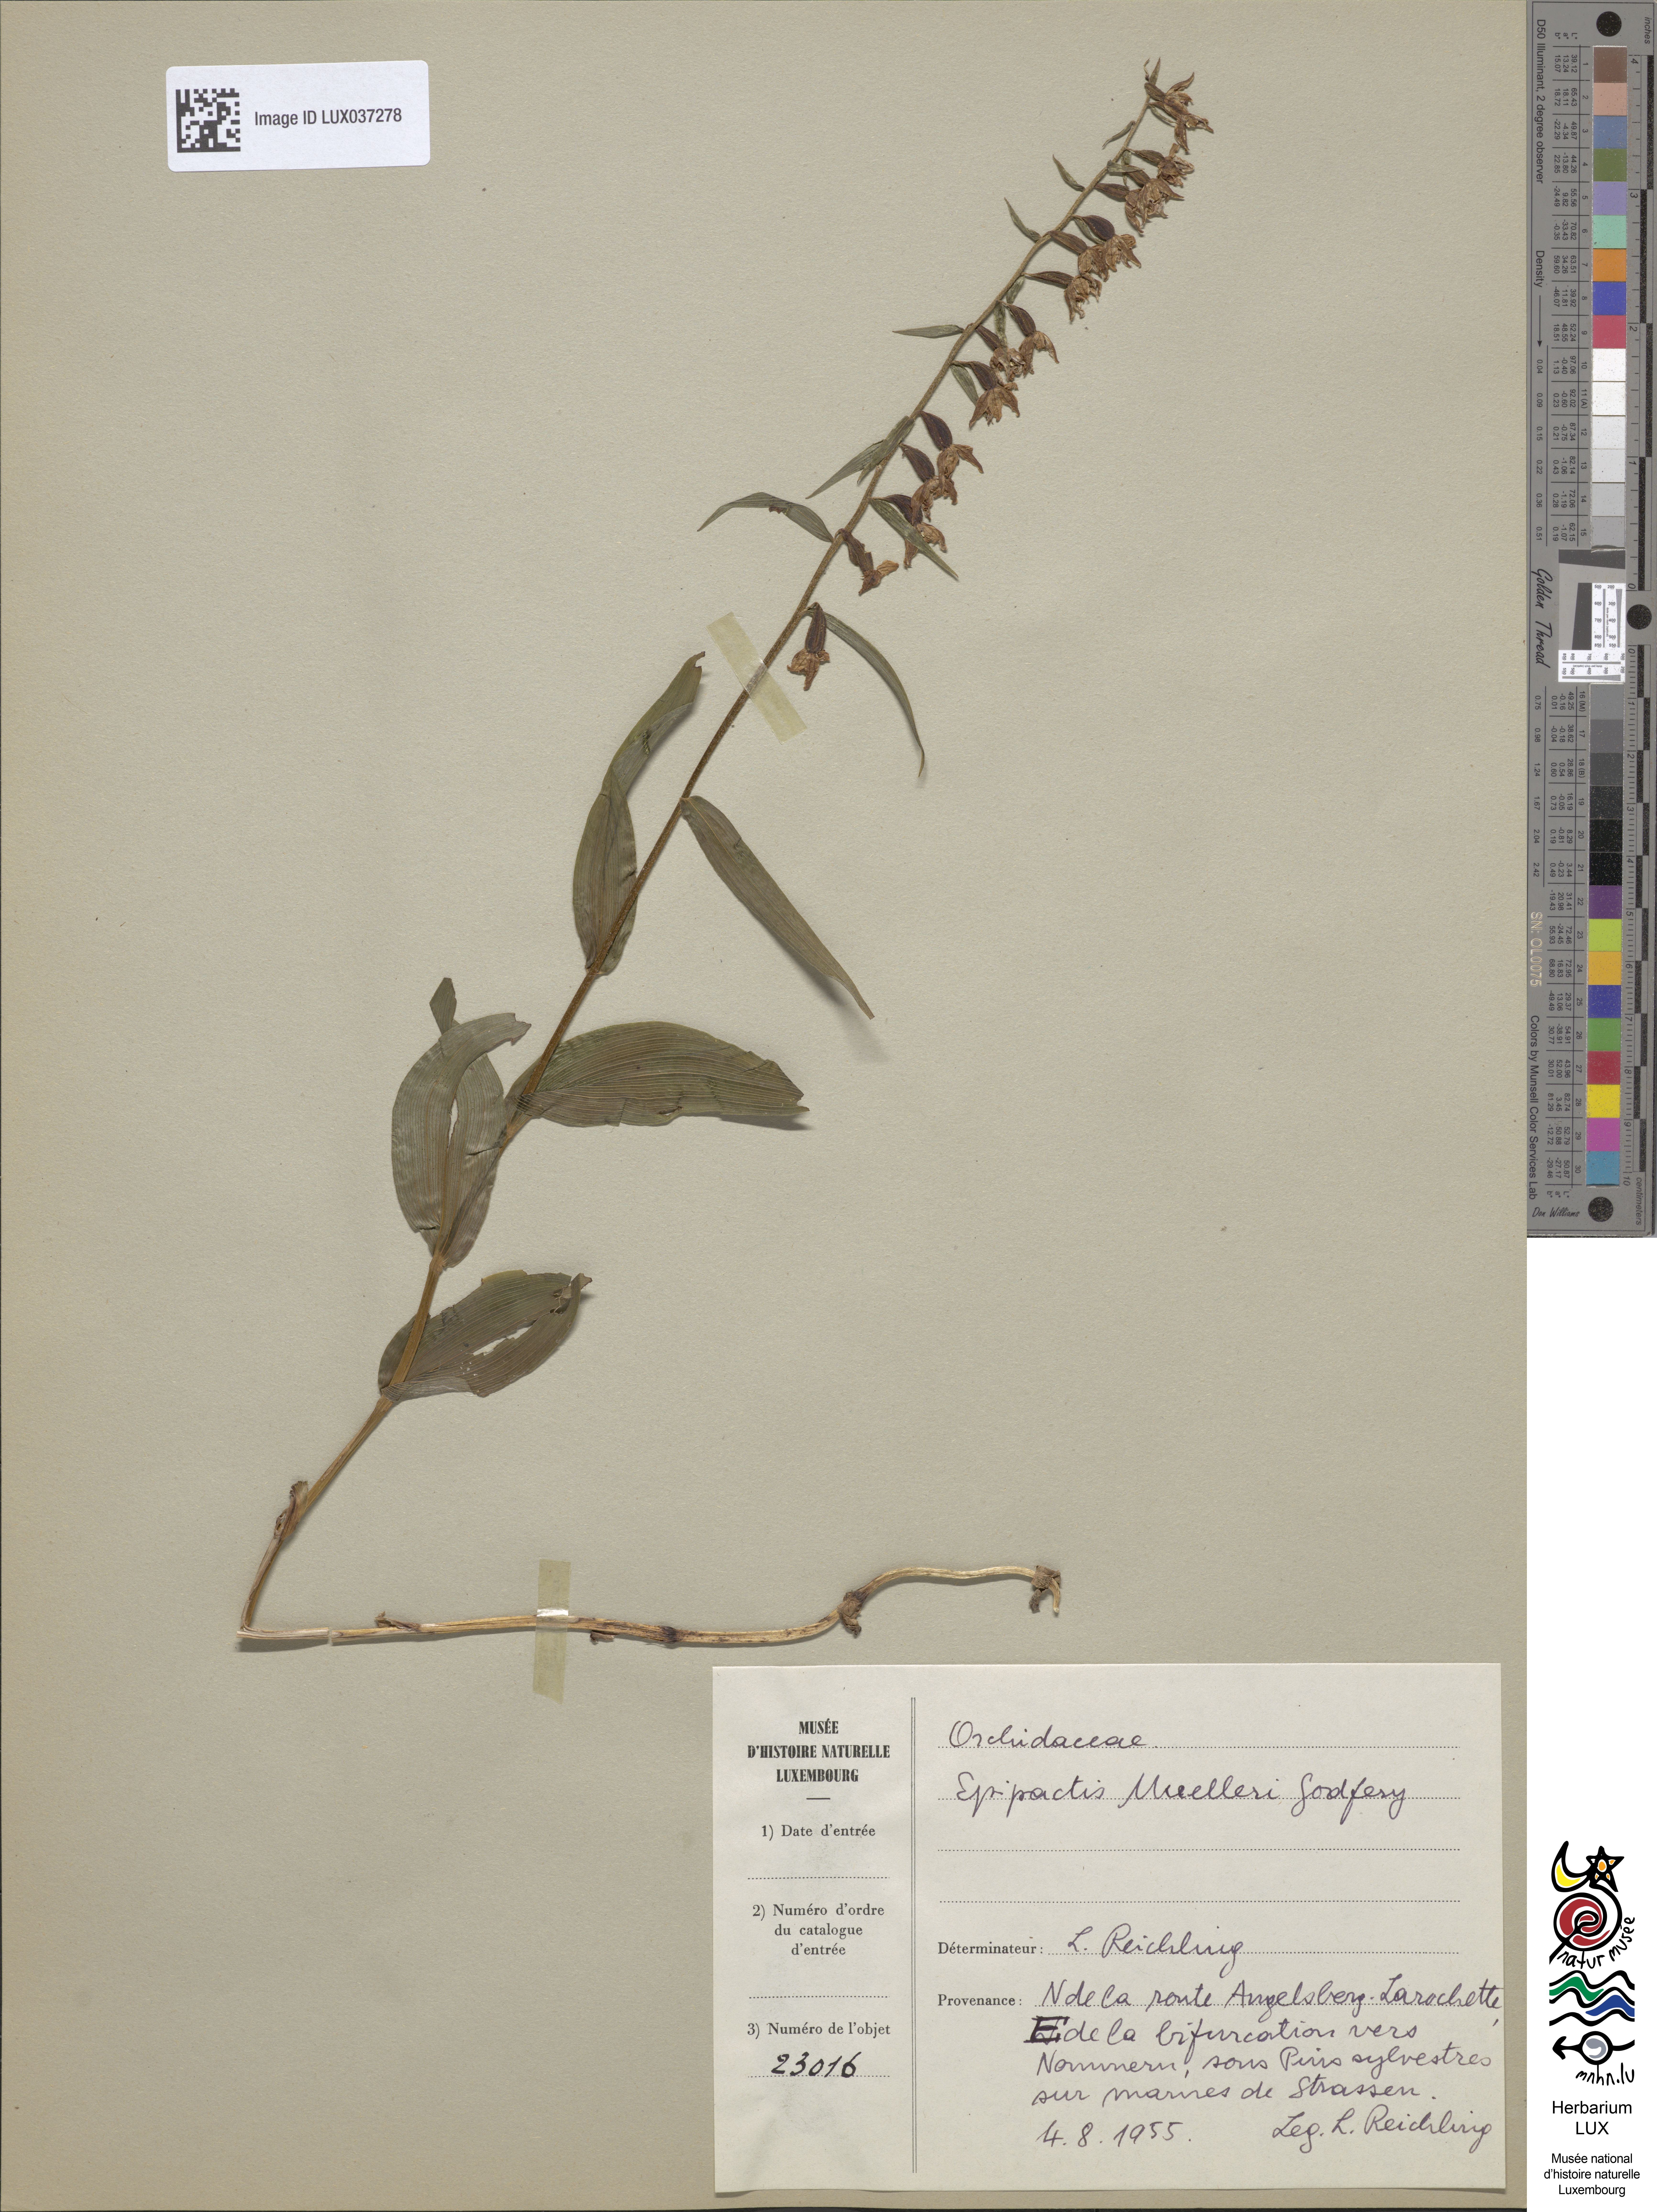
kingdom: Plantae
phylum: Tracheophyta
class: Liliopsida
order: Asparagales
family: Orchidaceae
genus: Epipactis
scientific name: Epipactis muelleri
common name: Mueller's epipactis
